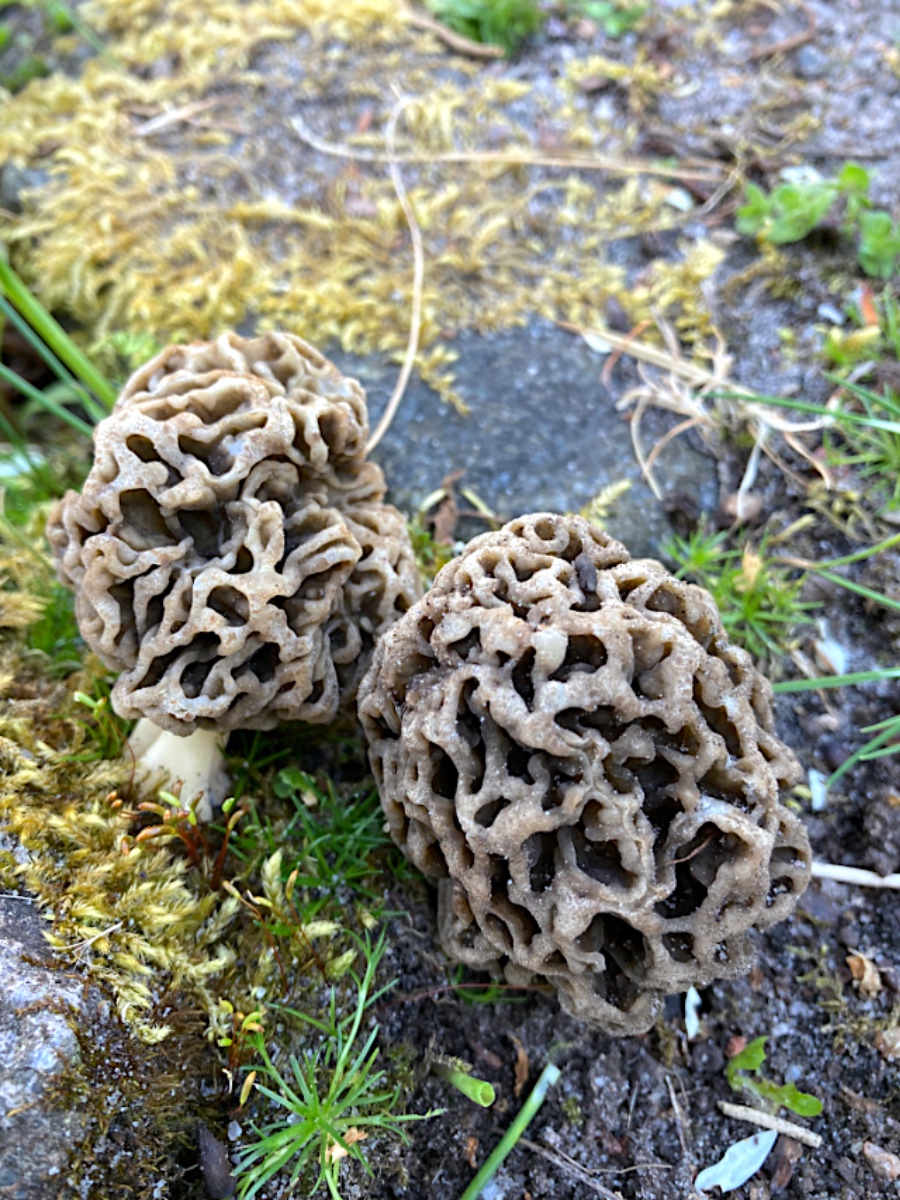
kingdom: Fungi
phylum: Ascomycota
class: Pezizomycetes
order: Pezizales
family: Morchellaceae
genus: Morchella
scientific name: Morchella esculenta
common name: almindelig morkel
